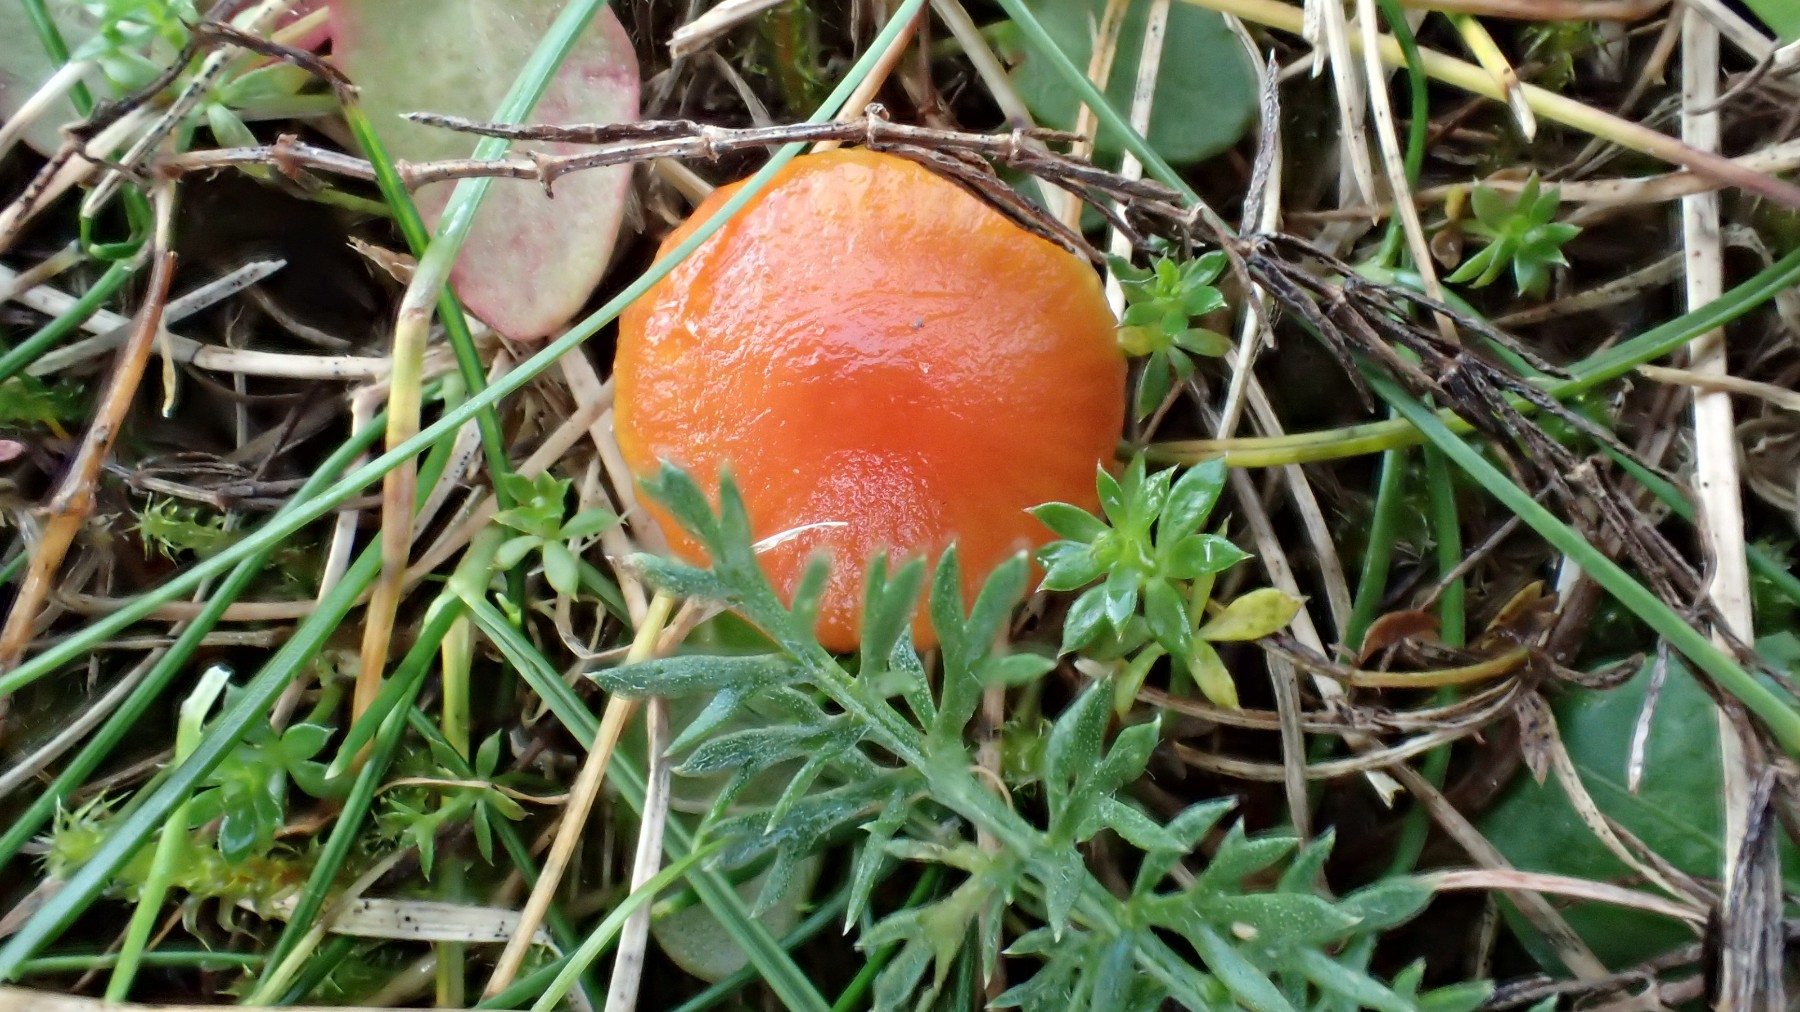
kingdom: Fungi
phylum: Basidiomycota
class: Agaricomycetes
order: Agaricales
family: Hygrophoraceae
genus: Hygrocybe
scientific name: Hygrocybe insipida
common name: liden vokshat
